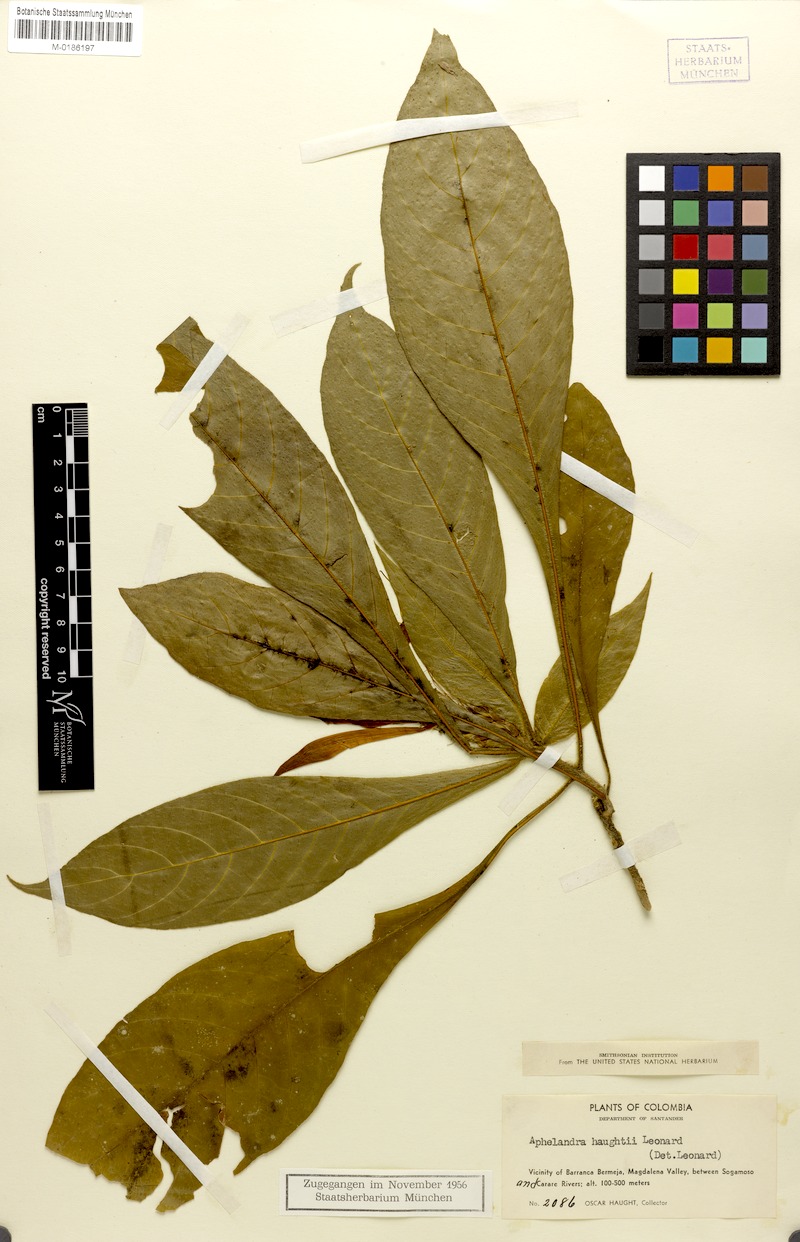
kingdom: Plantae
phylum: Tracheophyta
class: Magnoliopsida
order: Lamiales
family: Acanthaceae
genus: Aphelandra
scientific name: Aphelandra haughtii
